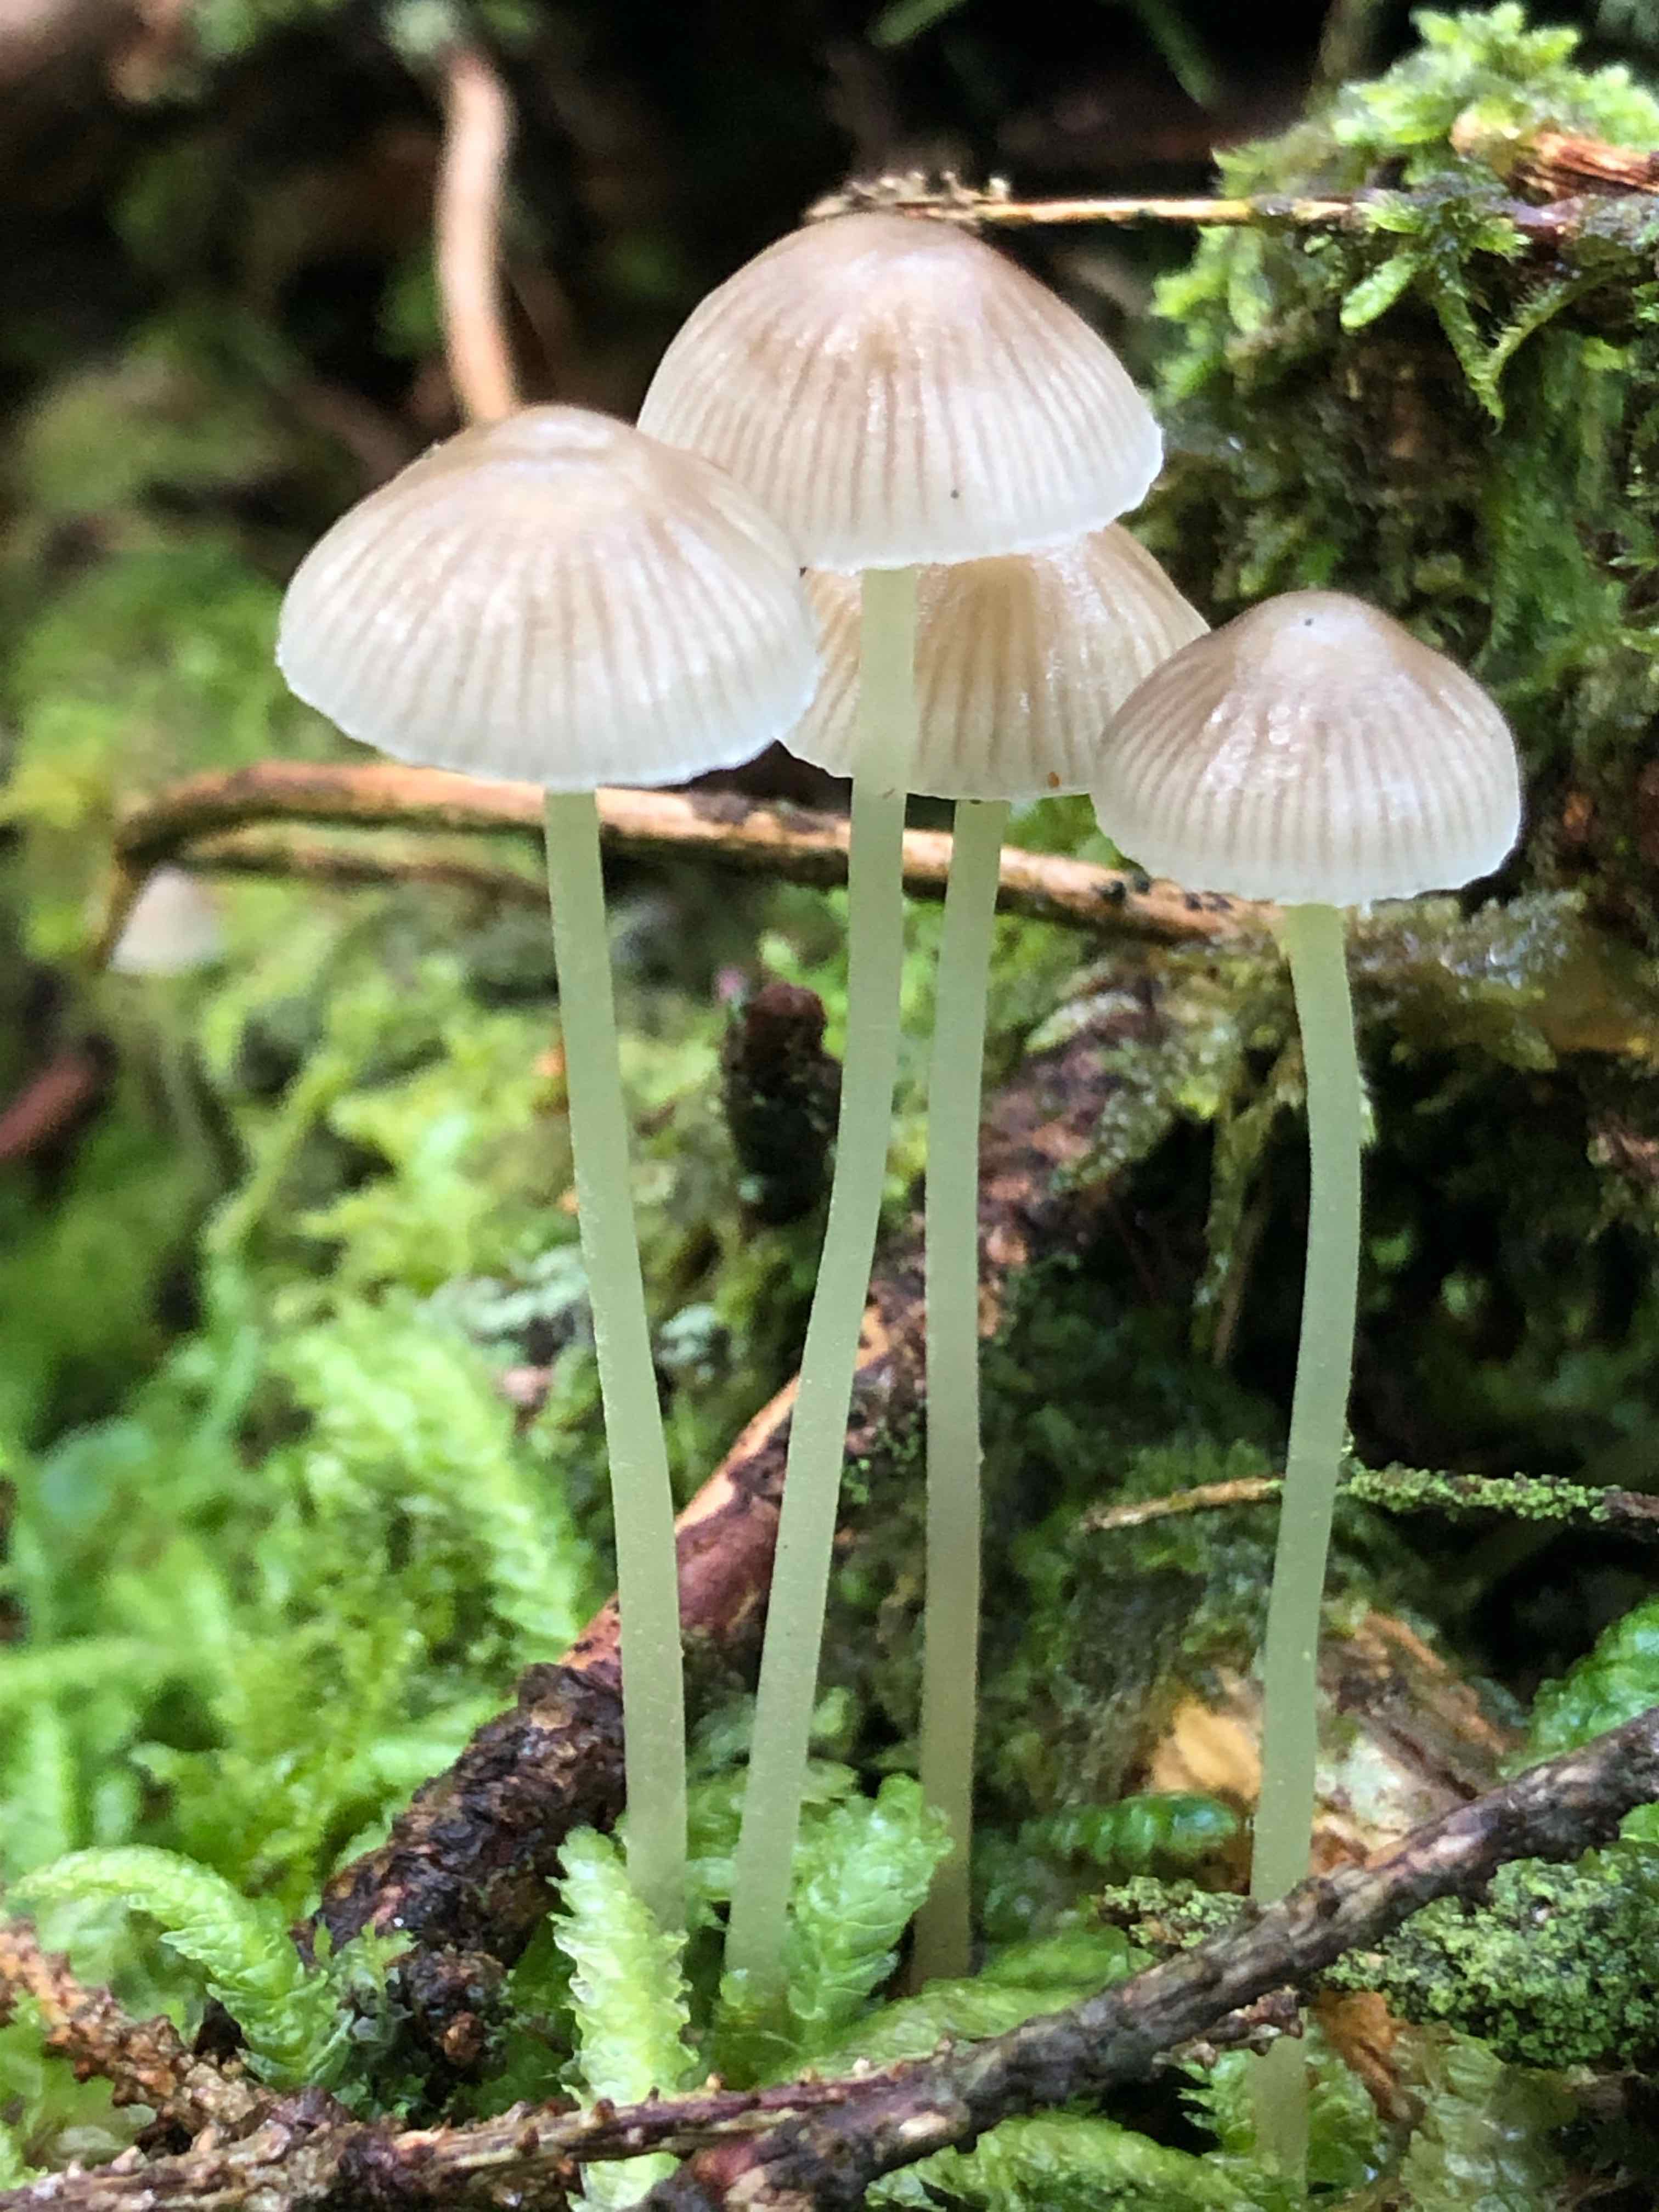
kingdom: Fungi
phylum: Basidiomycota
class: Agaricomycetes
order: Agaricales
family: Mycenaceae
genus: Mycena
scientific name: Mycena epipterygia
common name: gulstokket huesvamp
